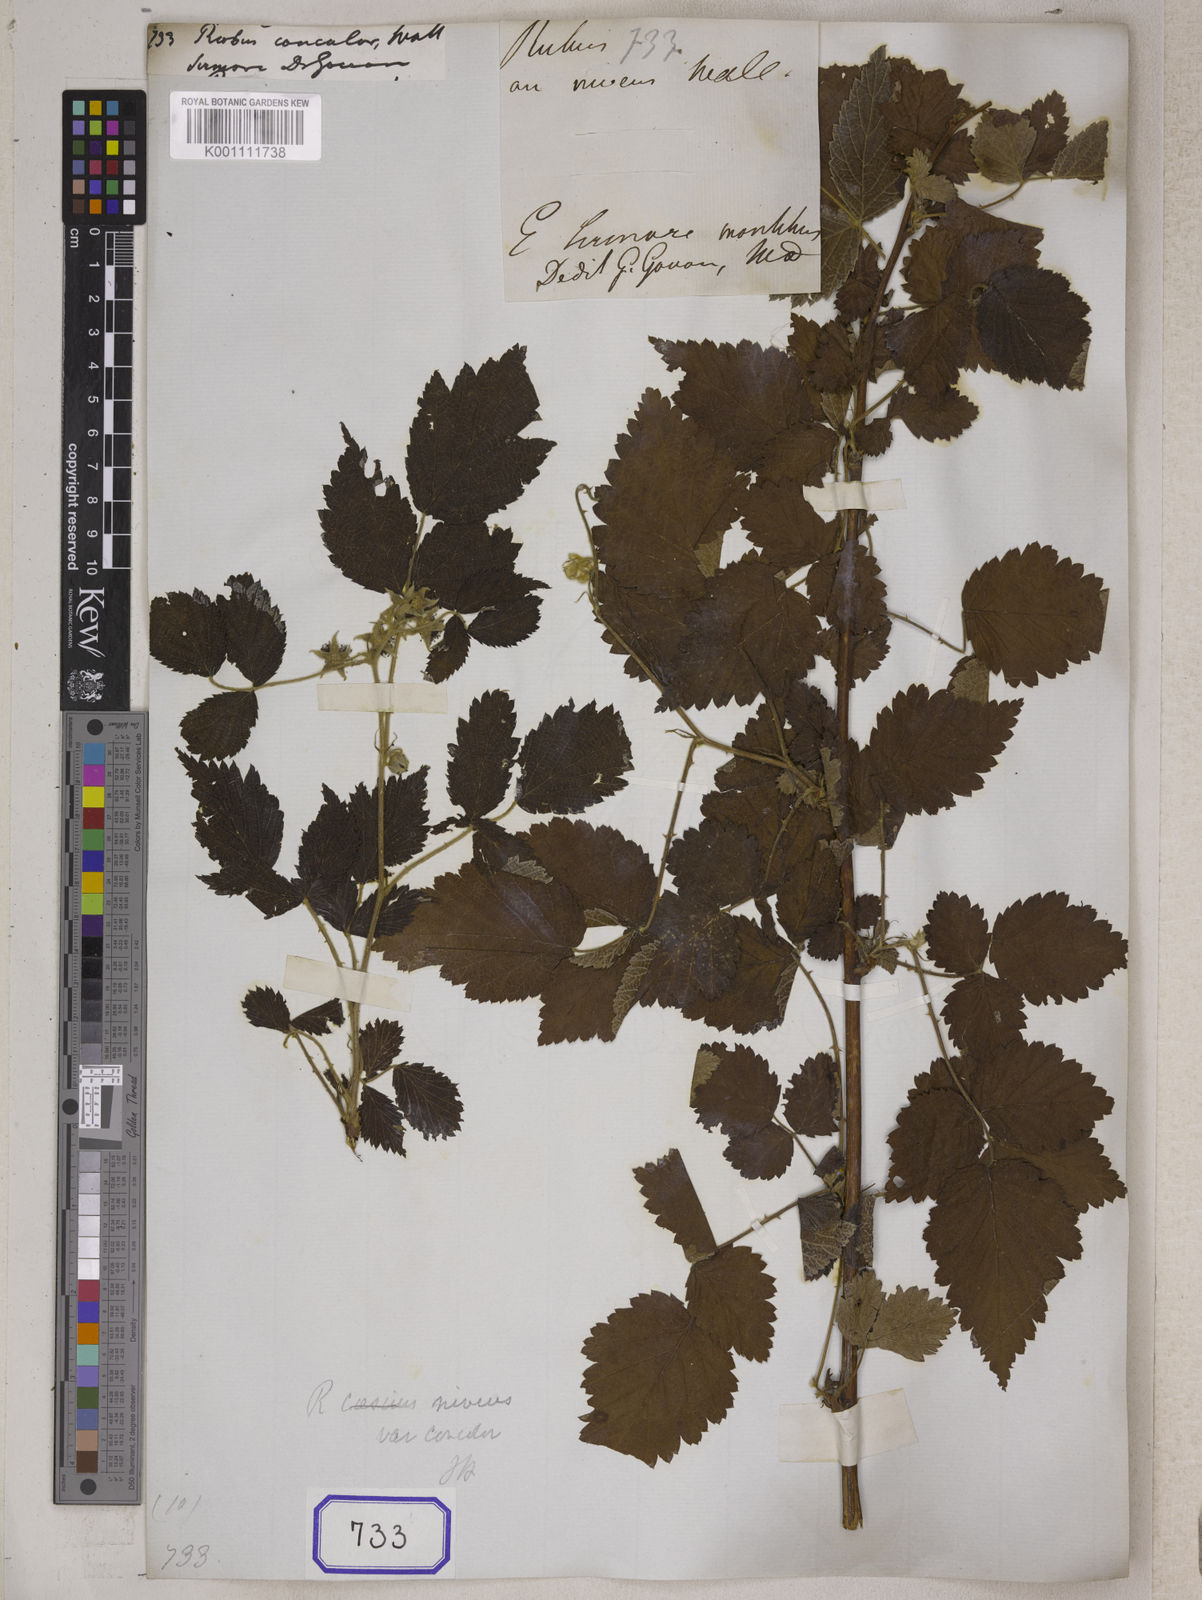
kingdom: Plantae
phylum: Tracheophyta
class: Magnoliopsida
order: Rosales
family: Rosaceae
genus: Rubus
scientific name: Rubus pedunculosus
